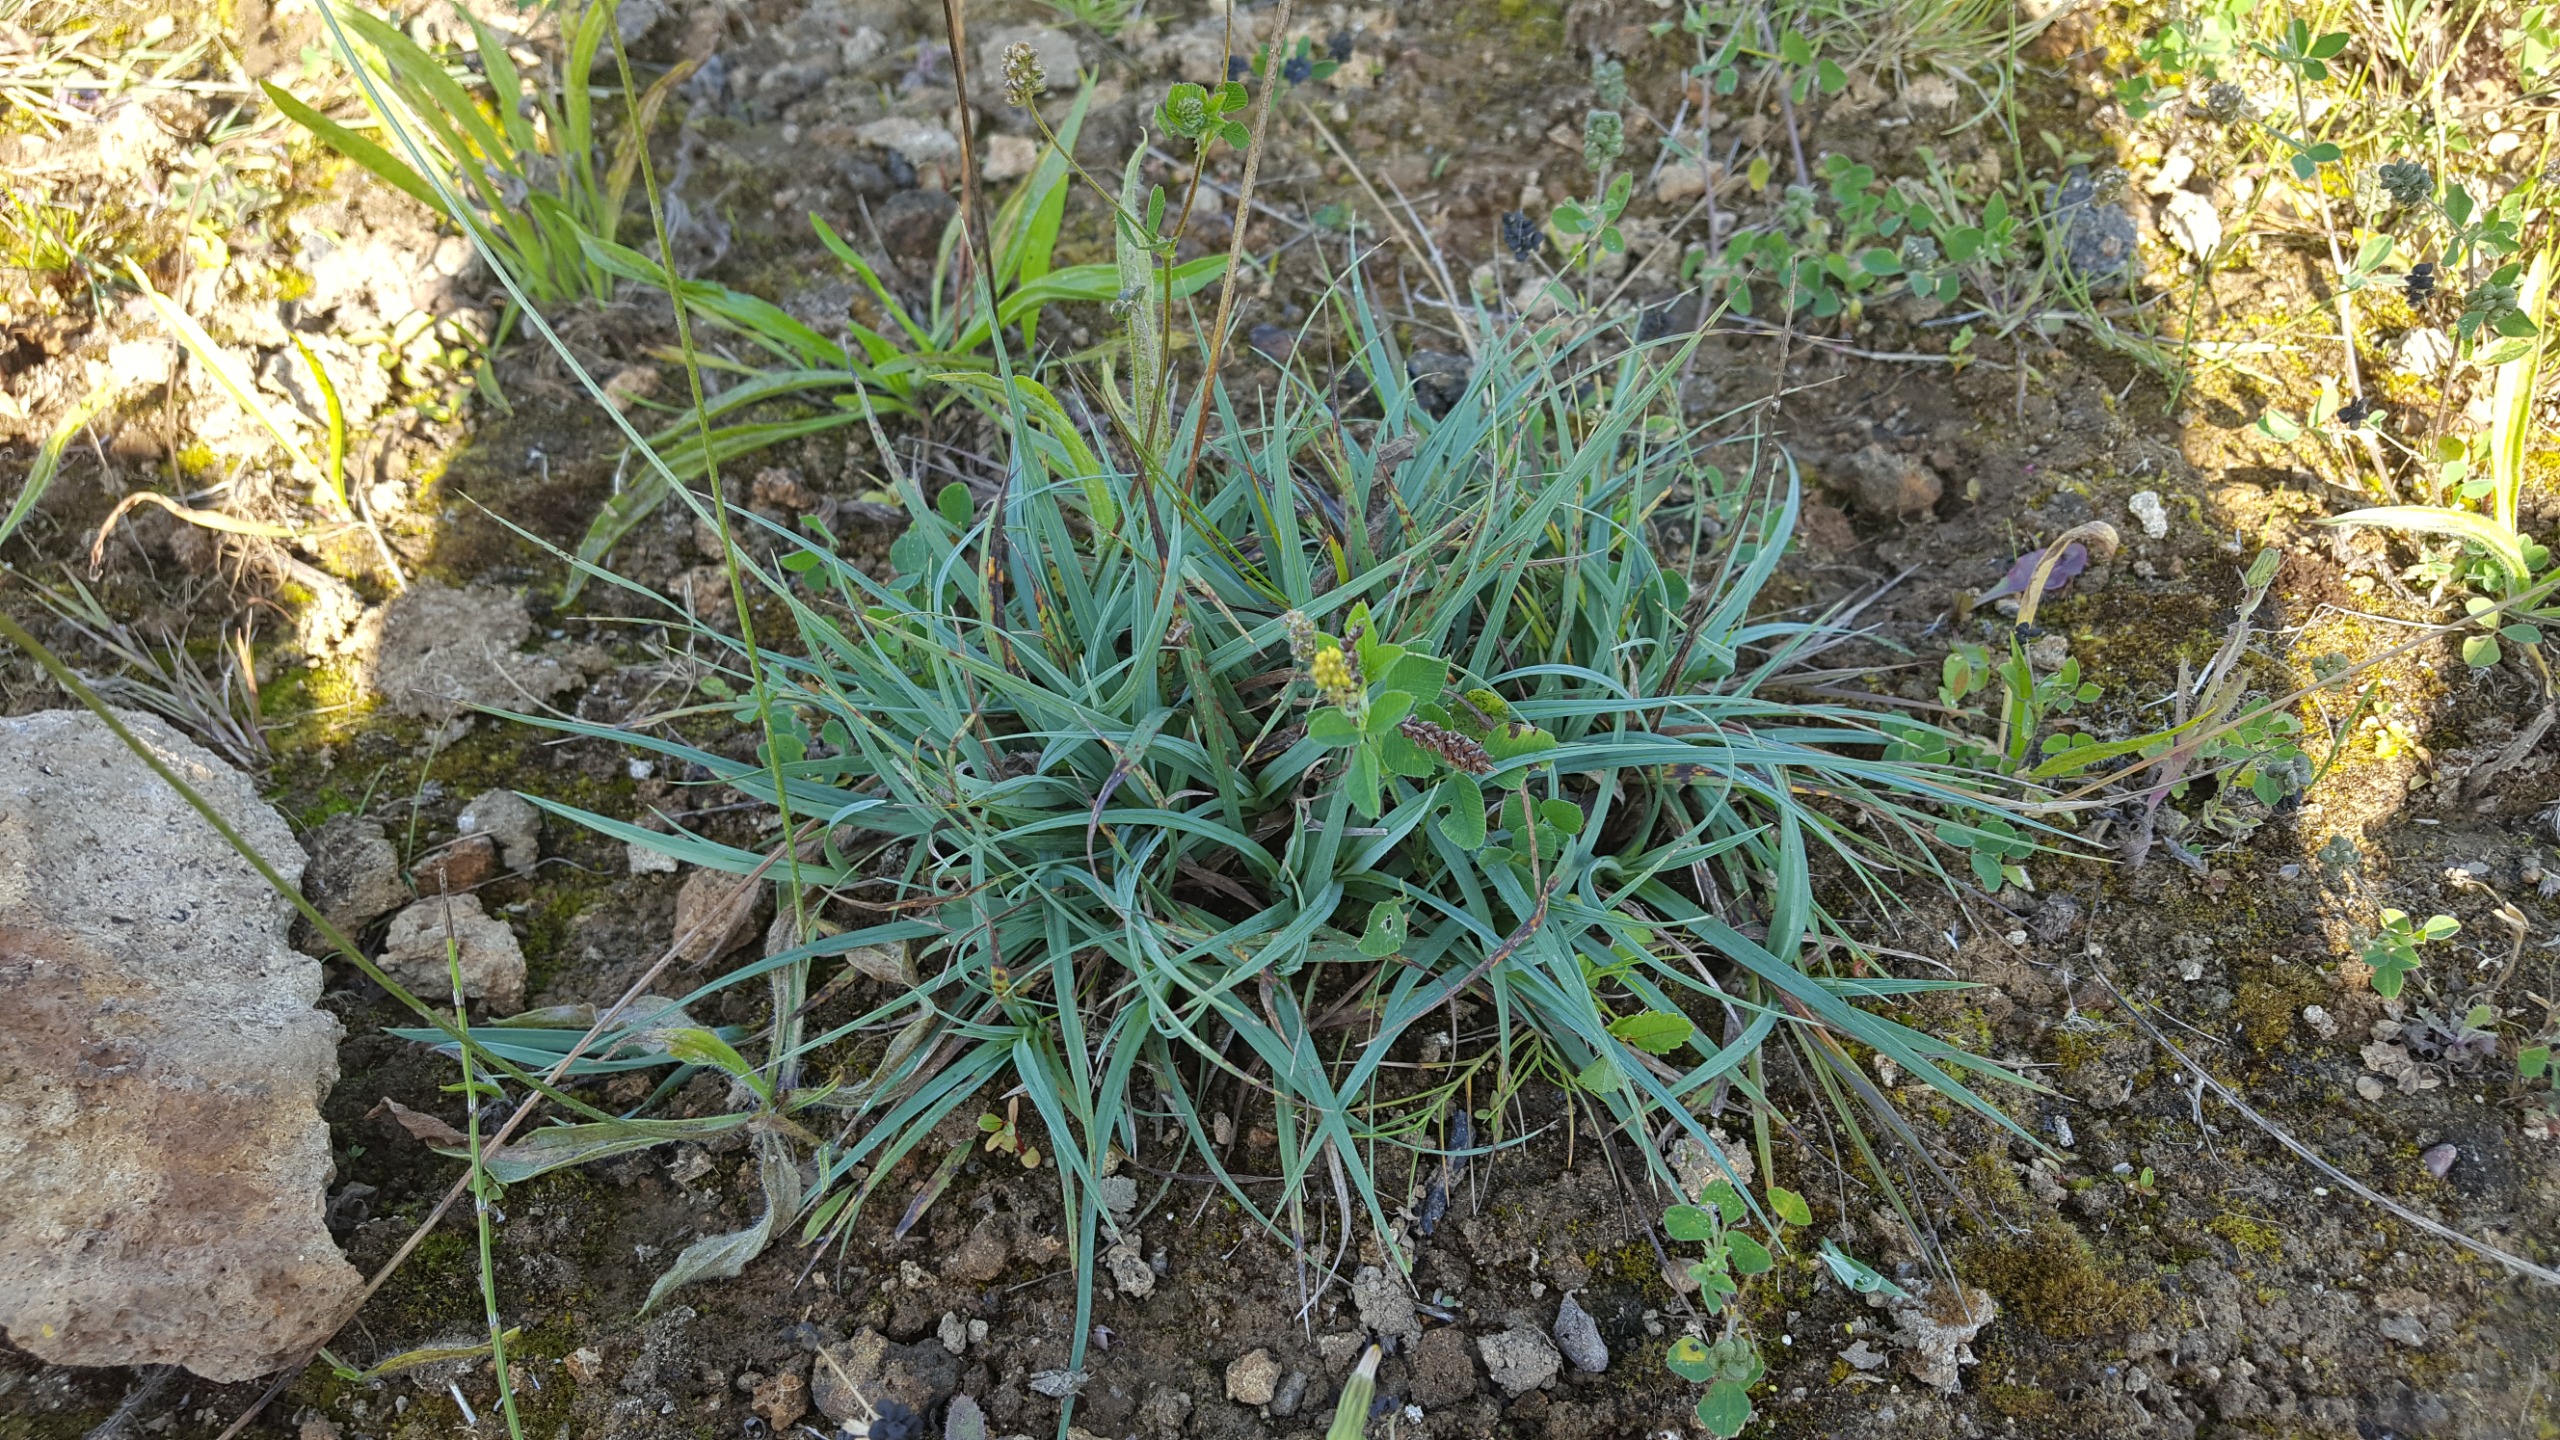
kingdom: Plantae
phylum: Tracheophyta
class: Liliopsida
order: Poales
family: Cyperaceae
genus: Carex
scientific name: Carex flacca
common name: Blågrøn star
